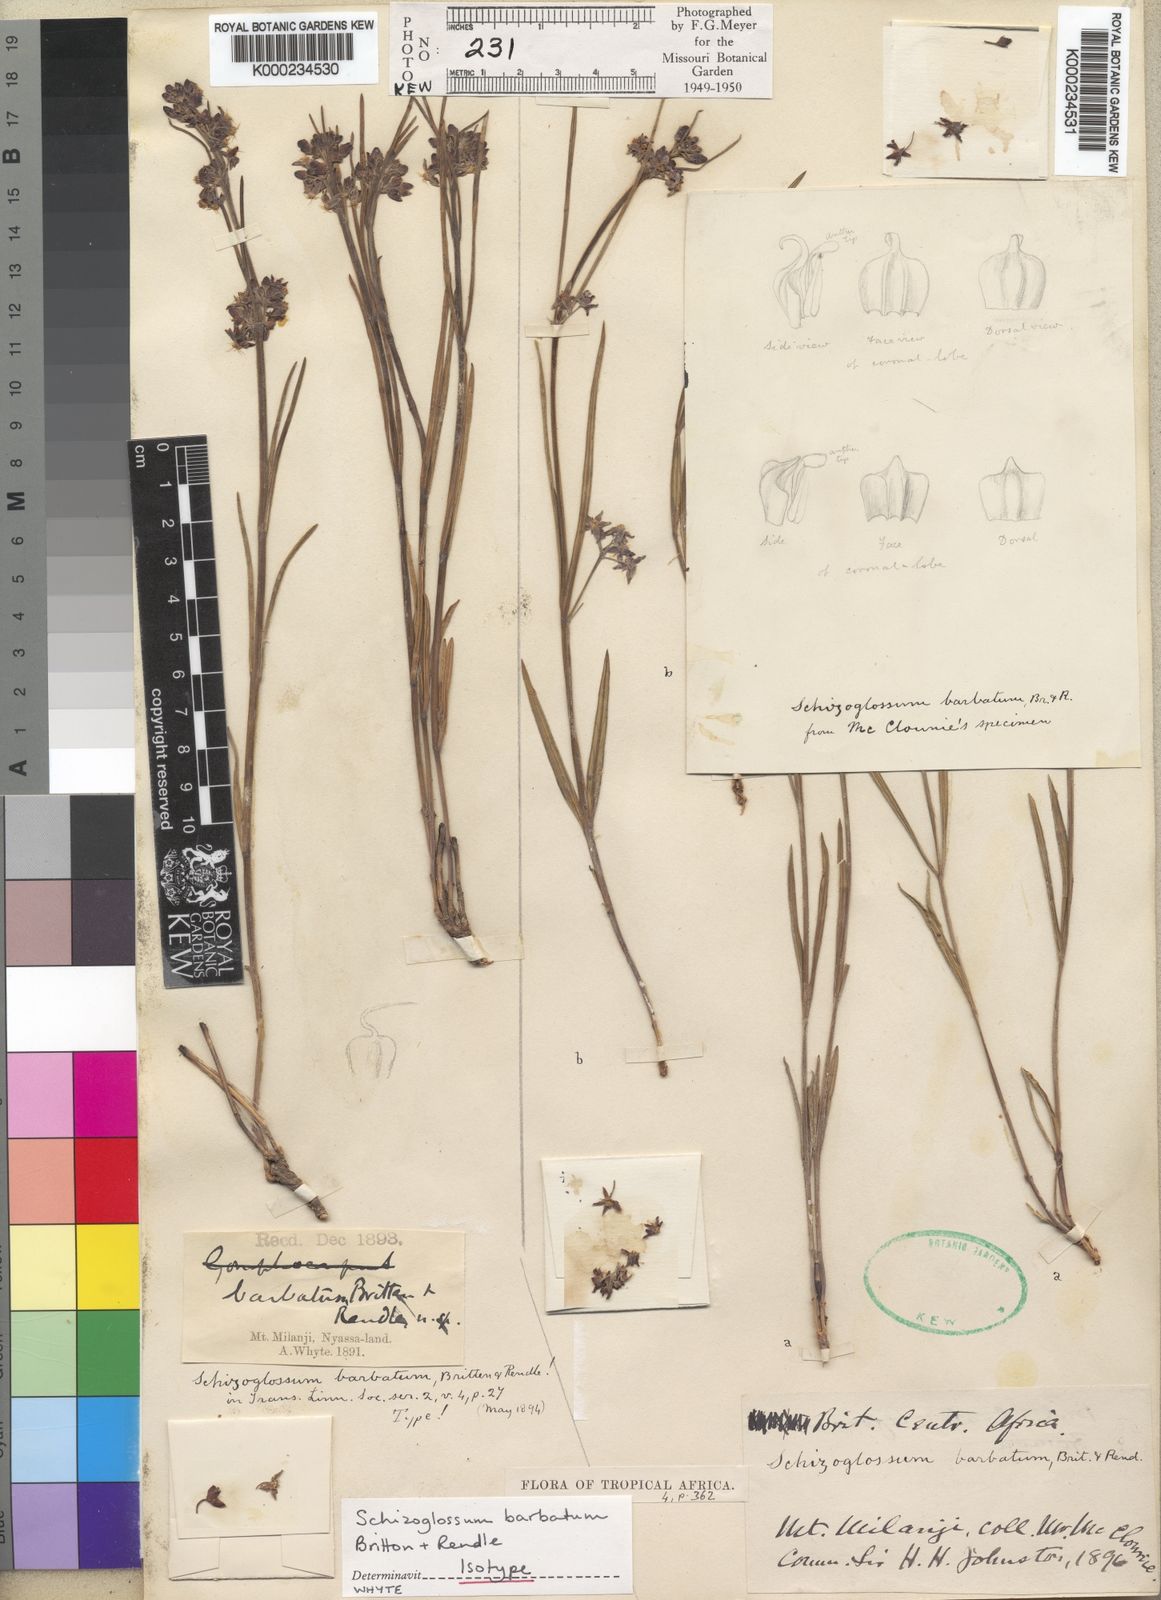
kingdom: Plantae
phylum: Tracheophyta
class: Magnoliopsida
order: Gentianales
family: Apocynaceae
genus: Schizoglossum
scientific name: Schizoglossum barbatum
